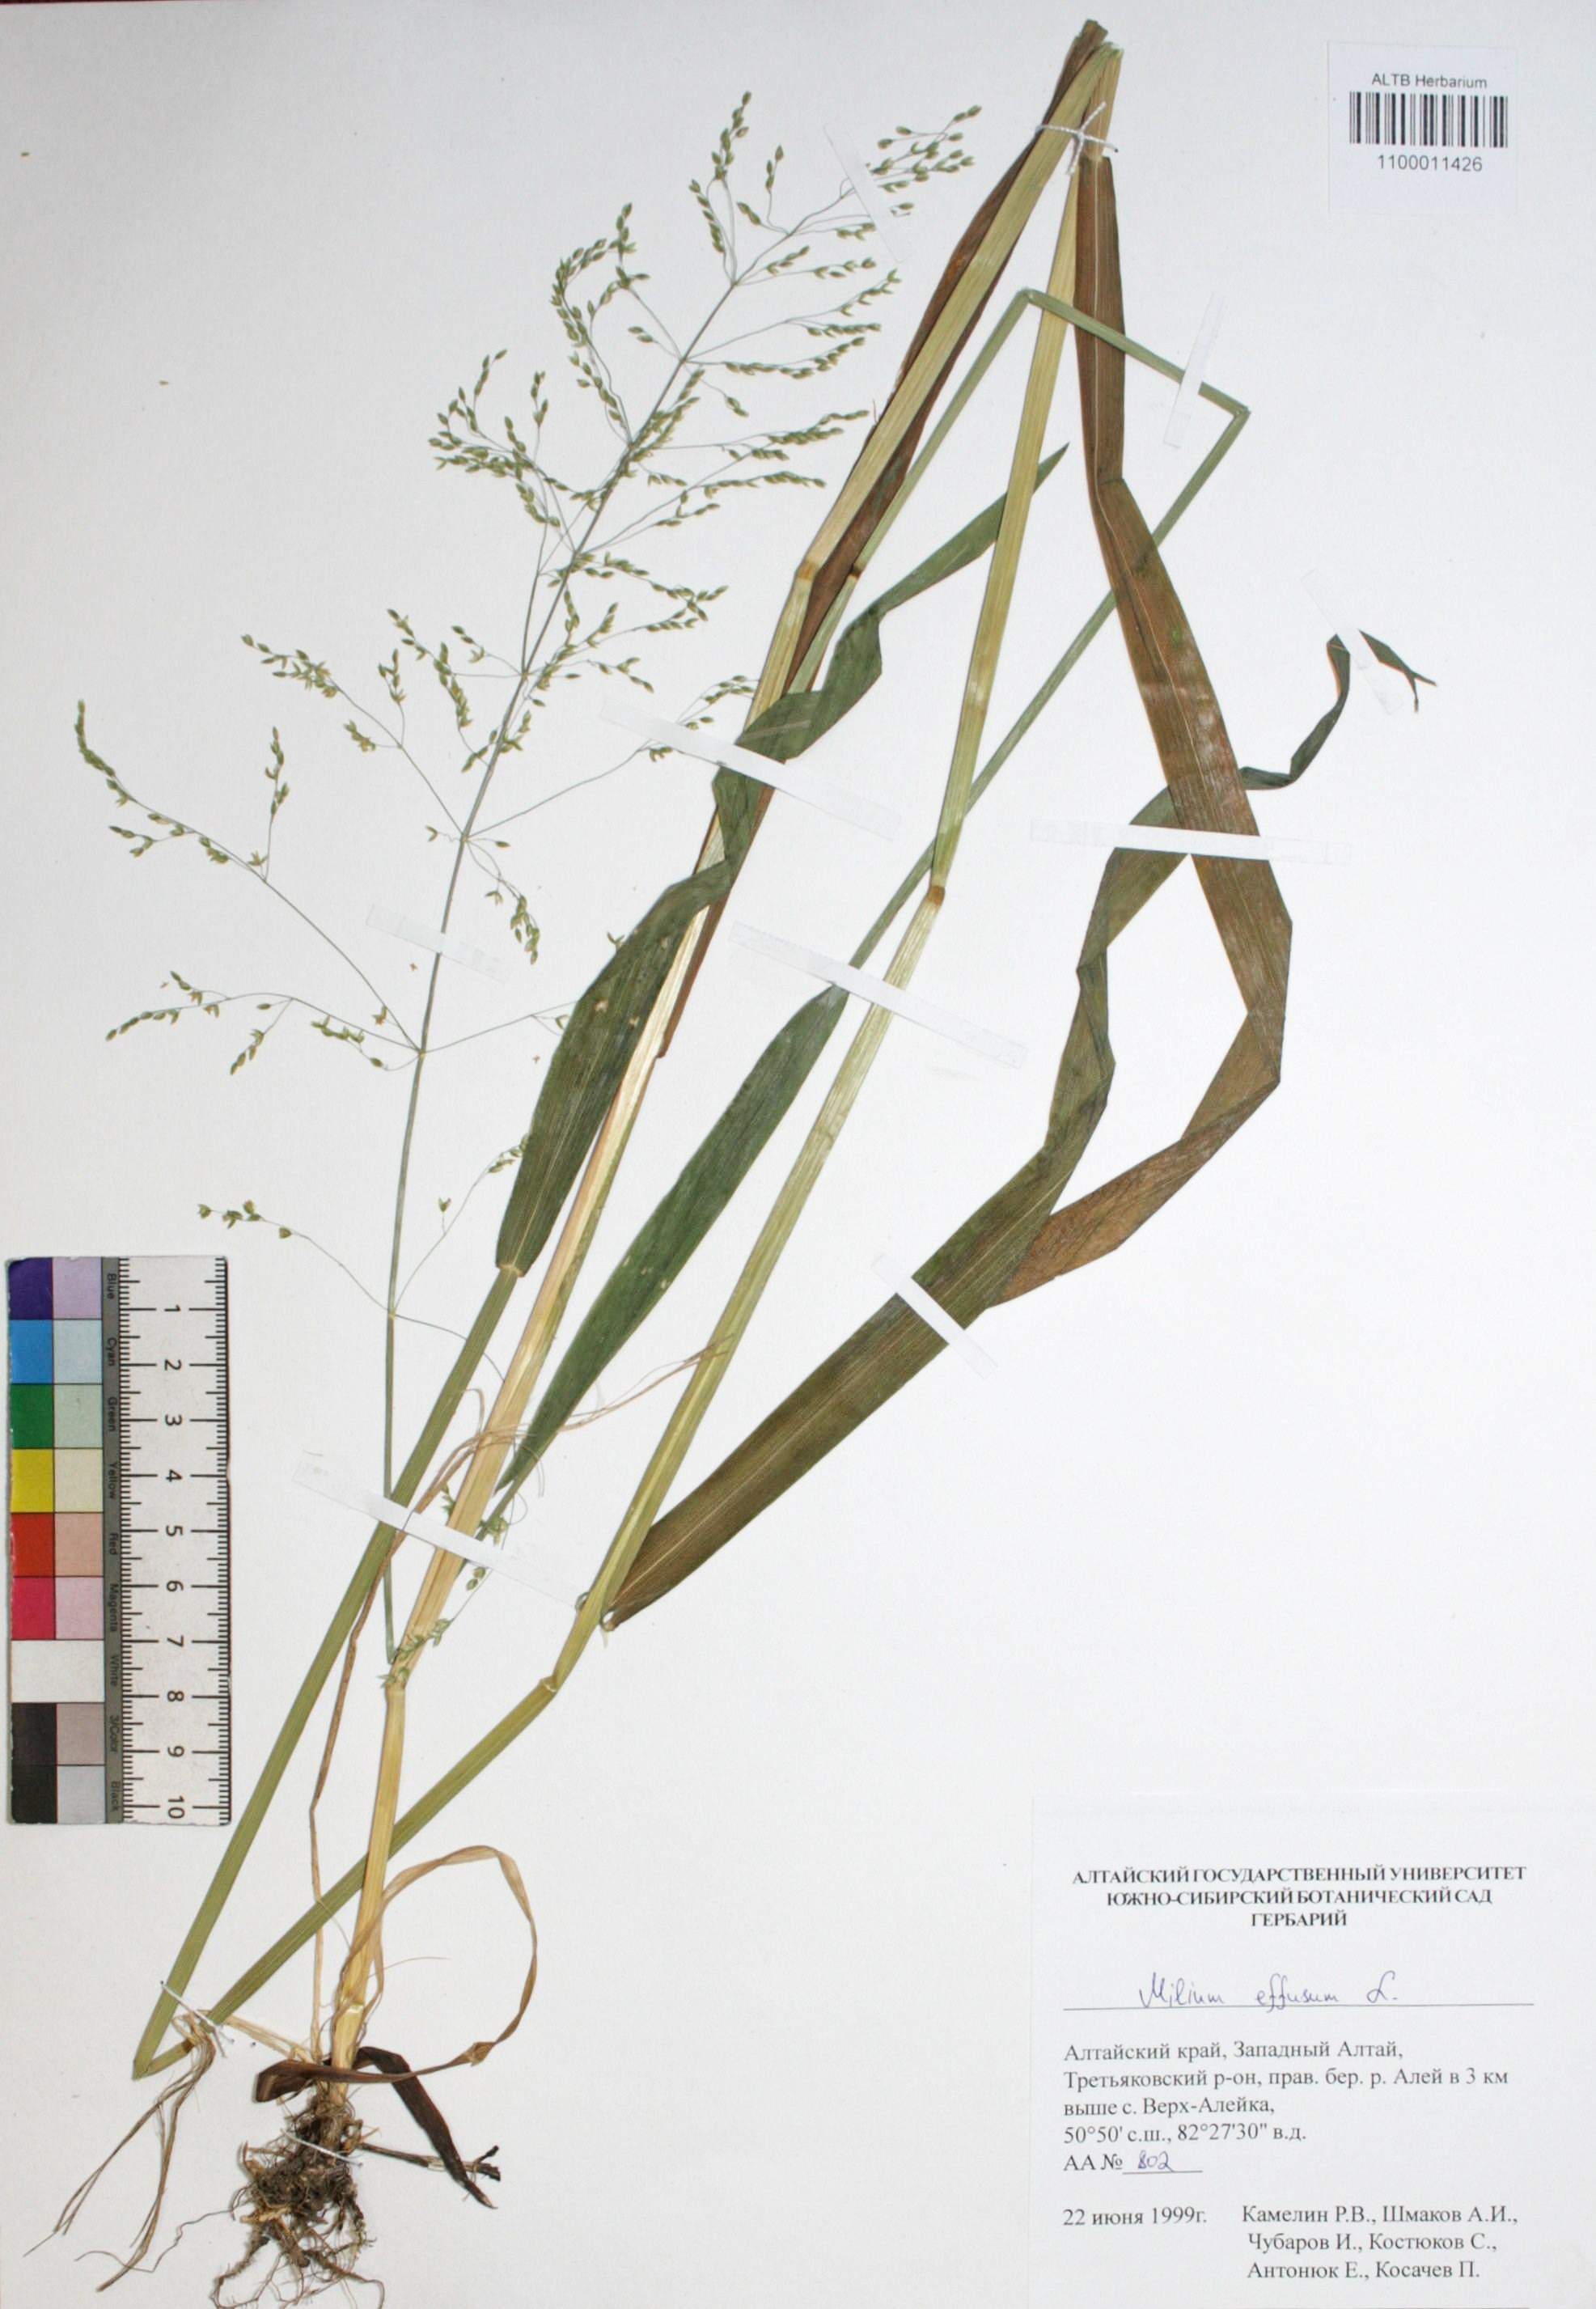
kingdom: Plantae
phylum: Tracheophyta
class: Liliopsida
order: Poales
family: Poaceae
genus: Milium
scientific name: Milium effusum
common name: Wood millet
